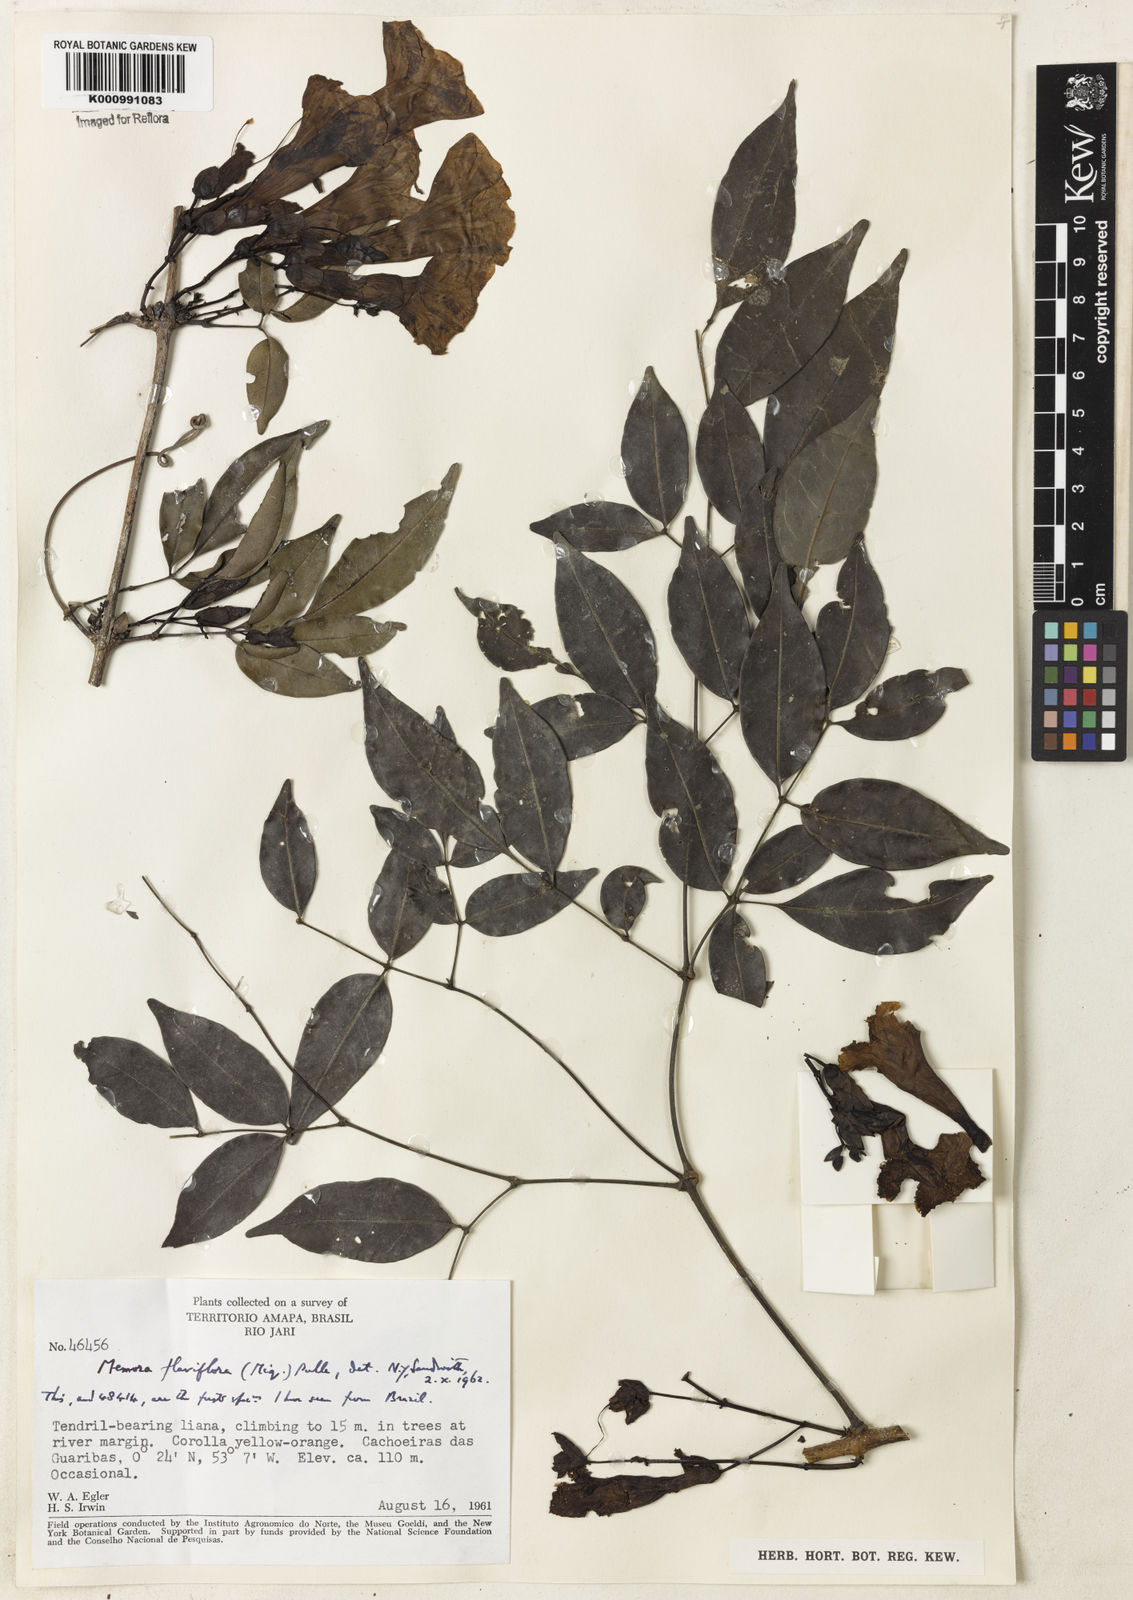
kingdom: Plantae
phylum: Tracheophyta
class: Magnoliopsida
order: Lamiales
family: Bignoniaceae
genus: Adenocalymma
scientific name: Adenocalymma flaviflorum
